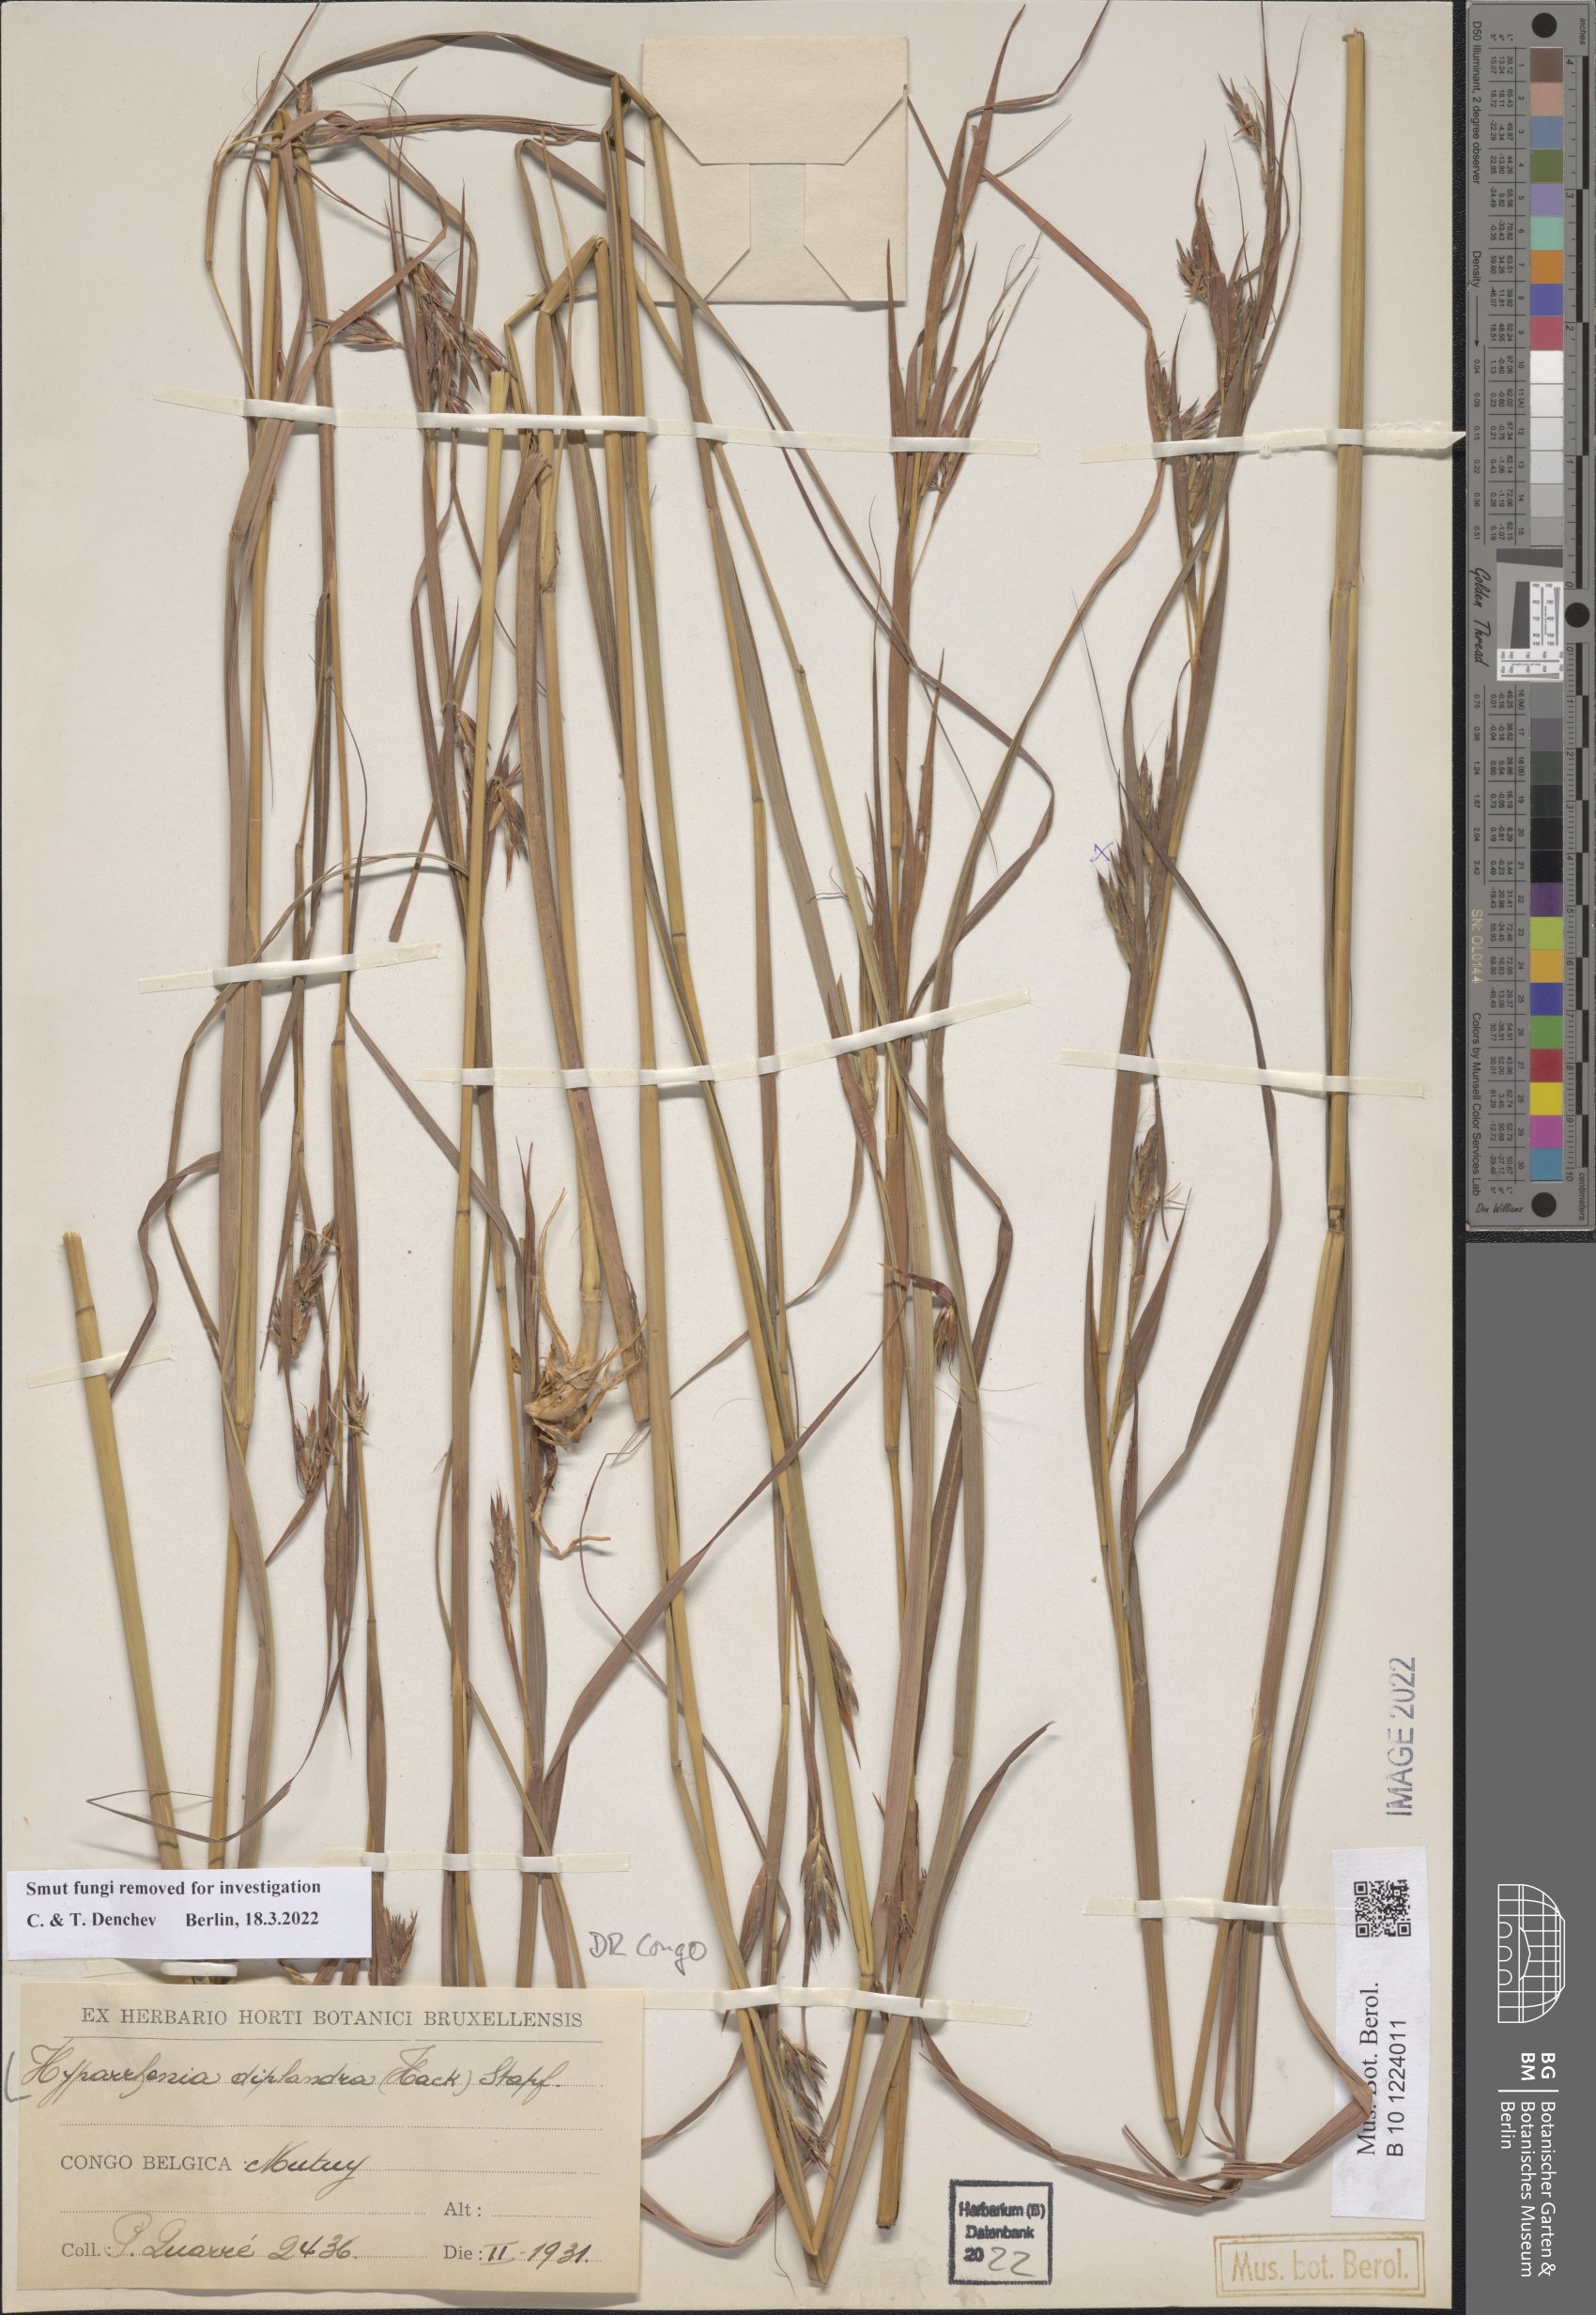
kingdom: Plantae
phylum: Tracheophyta
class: Liliopsida
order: Poales
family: Poaceae
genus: Hyparrhenia
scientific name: Hyparrhenia diplandra
